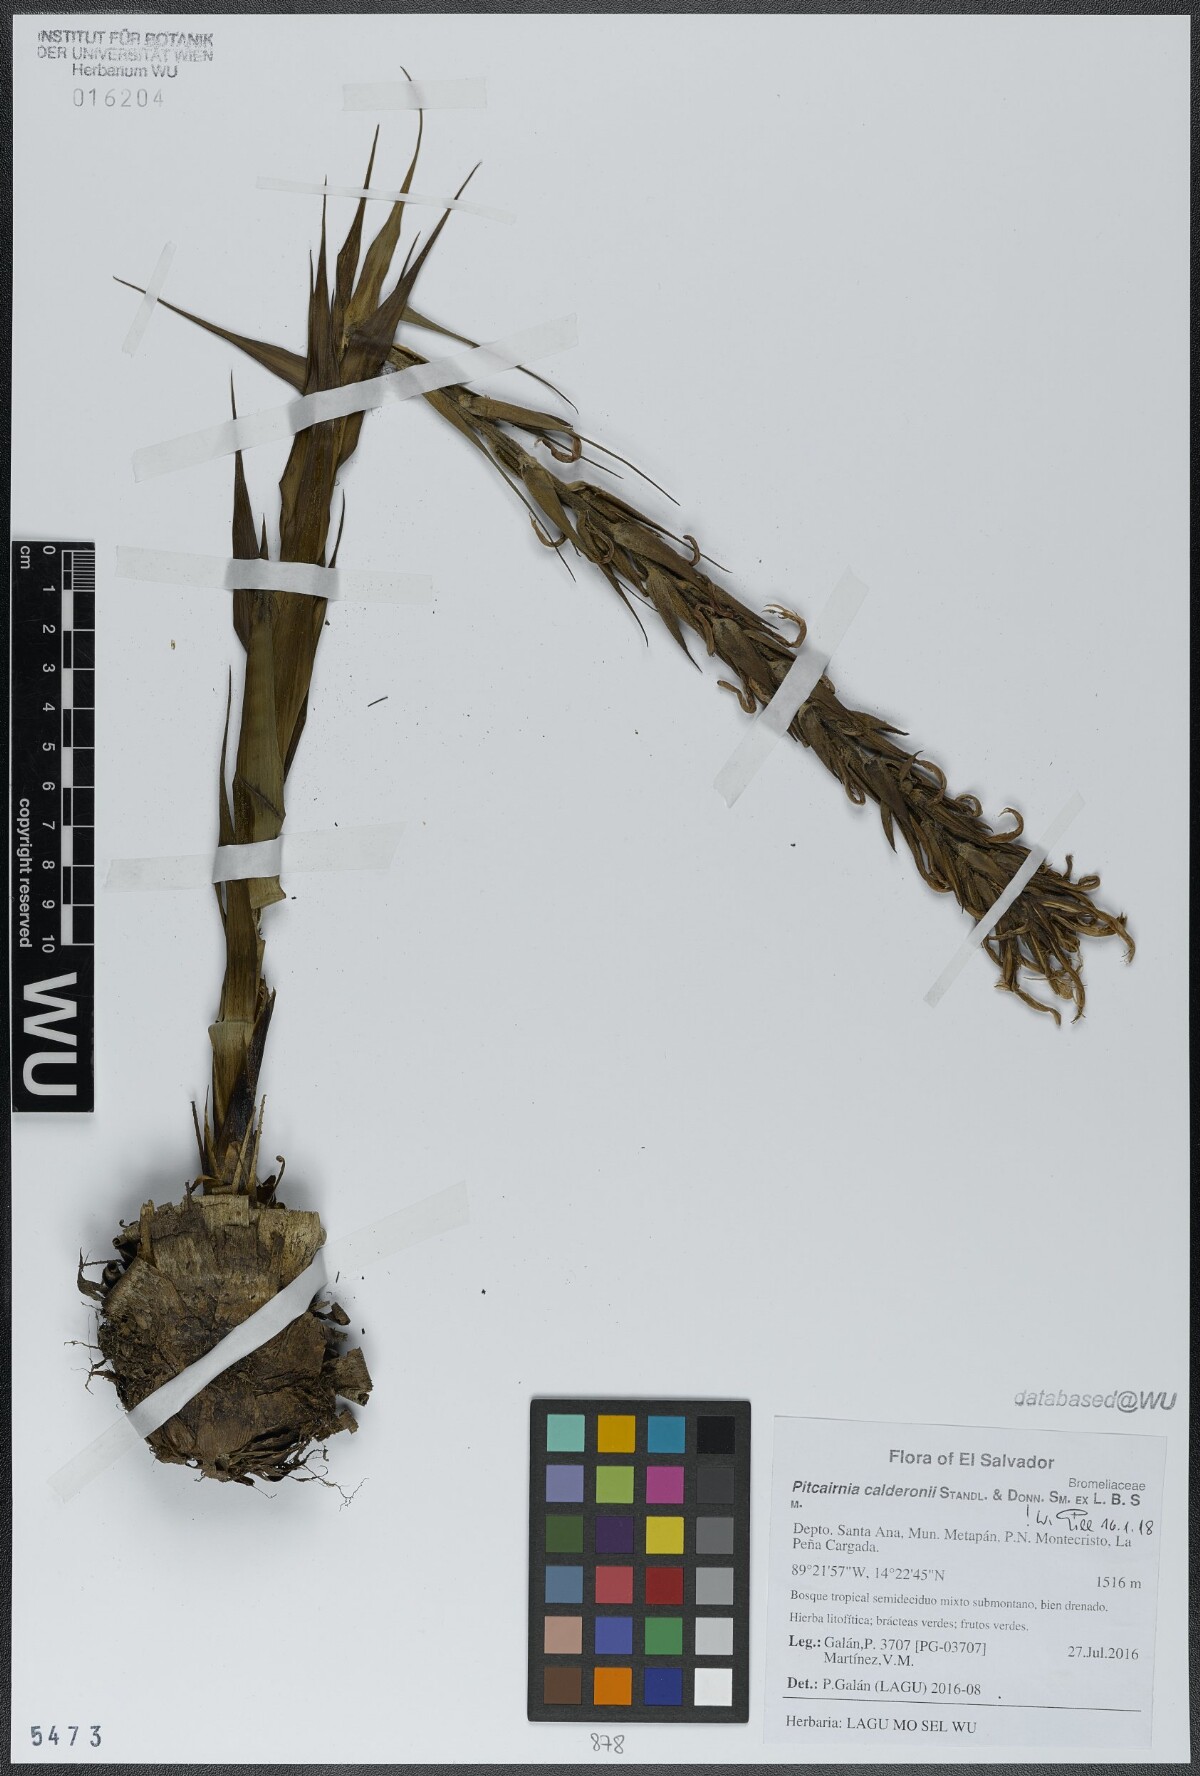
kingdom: Plantae
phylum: Tracheophyta
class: Liliopsida
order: Poales
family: Bromeliaceae
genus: Pitcairnia
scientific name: Pitcairnia calderonii
